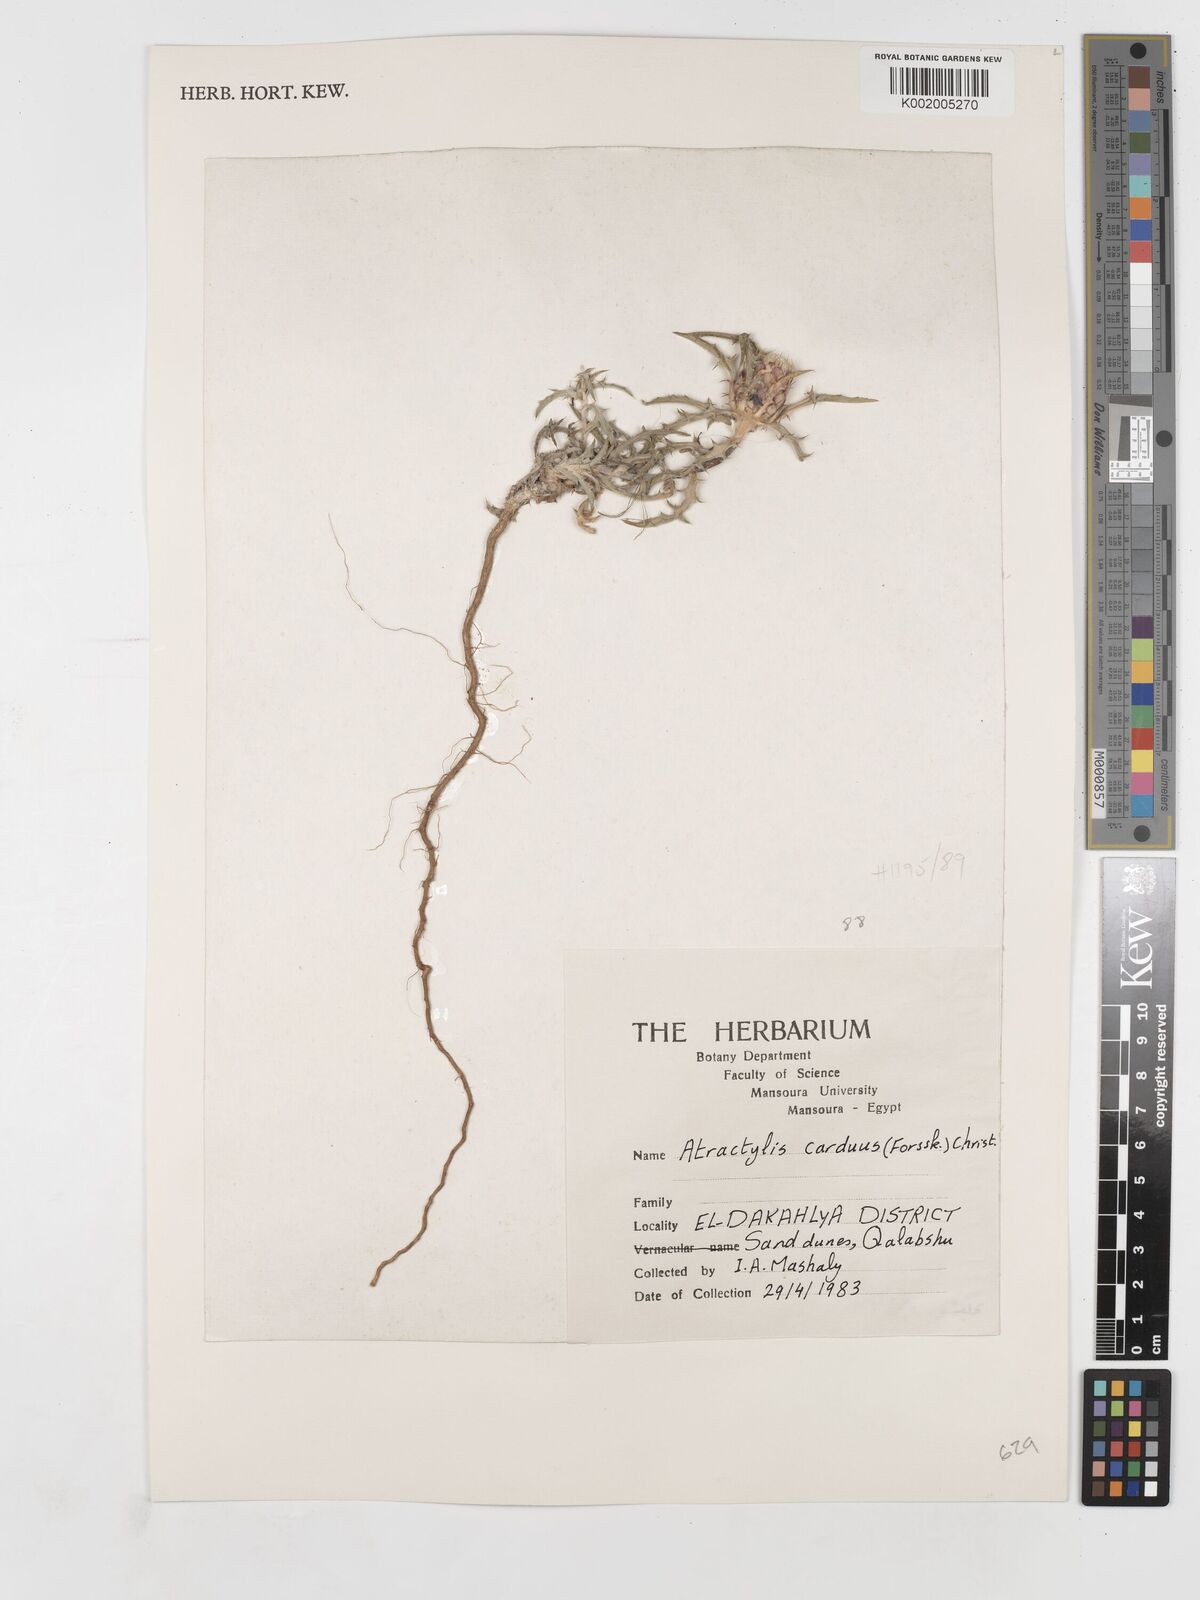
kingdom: Plantae
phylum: Tracheophyta
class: Magnoliopsida
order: Asterales
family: Asteraceae
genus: Atractylis
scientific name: Atractylis carduus
